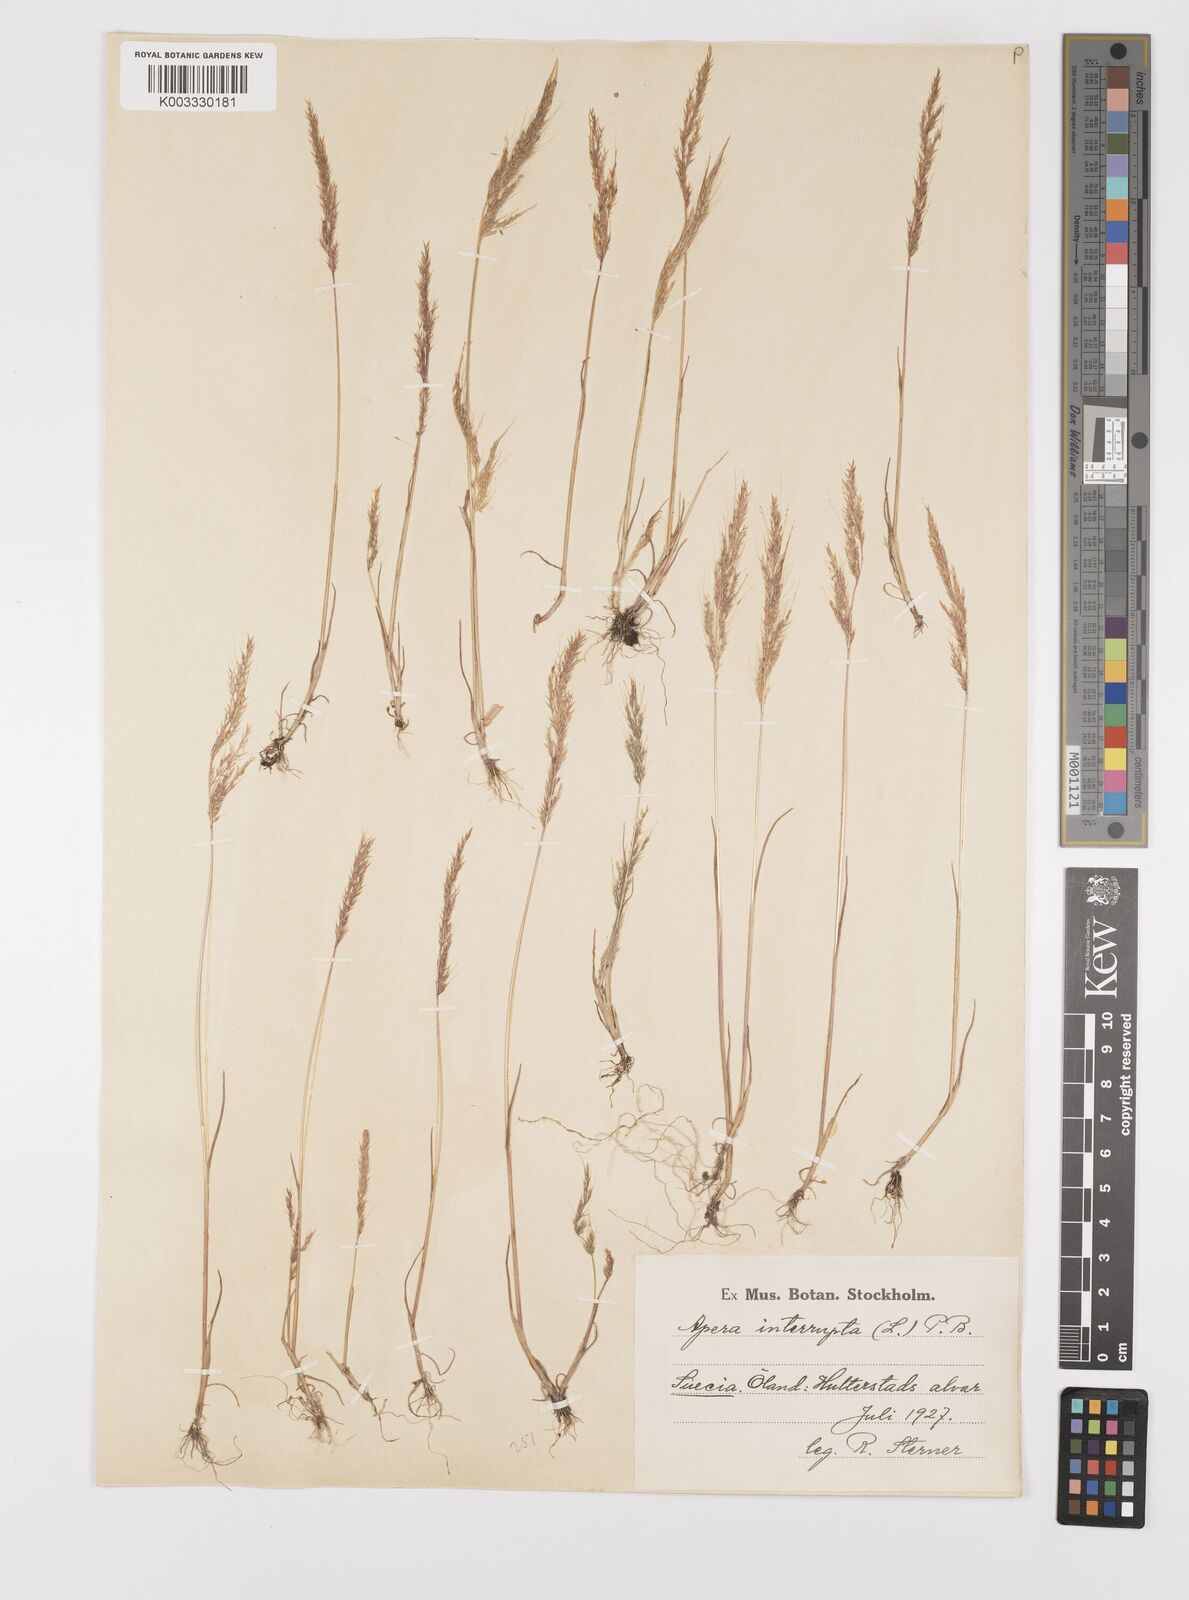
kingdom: Plantae
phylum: Tracheophyta
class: Liliopsida
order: Poales
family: Poaceae
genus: Apera
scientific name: Apera interrupta
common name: Dense silky-bent
